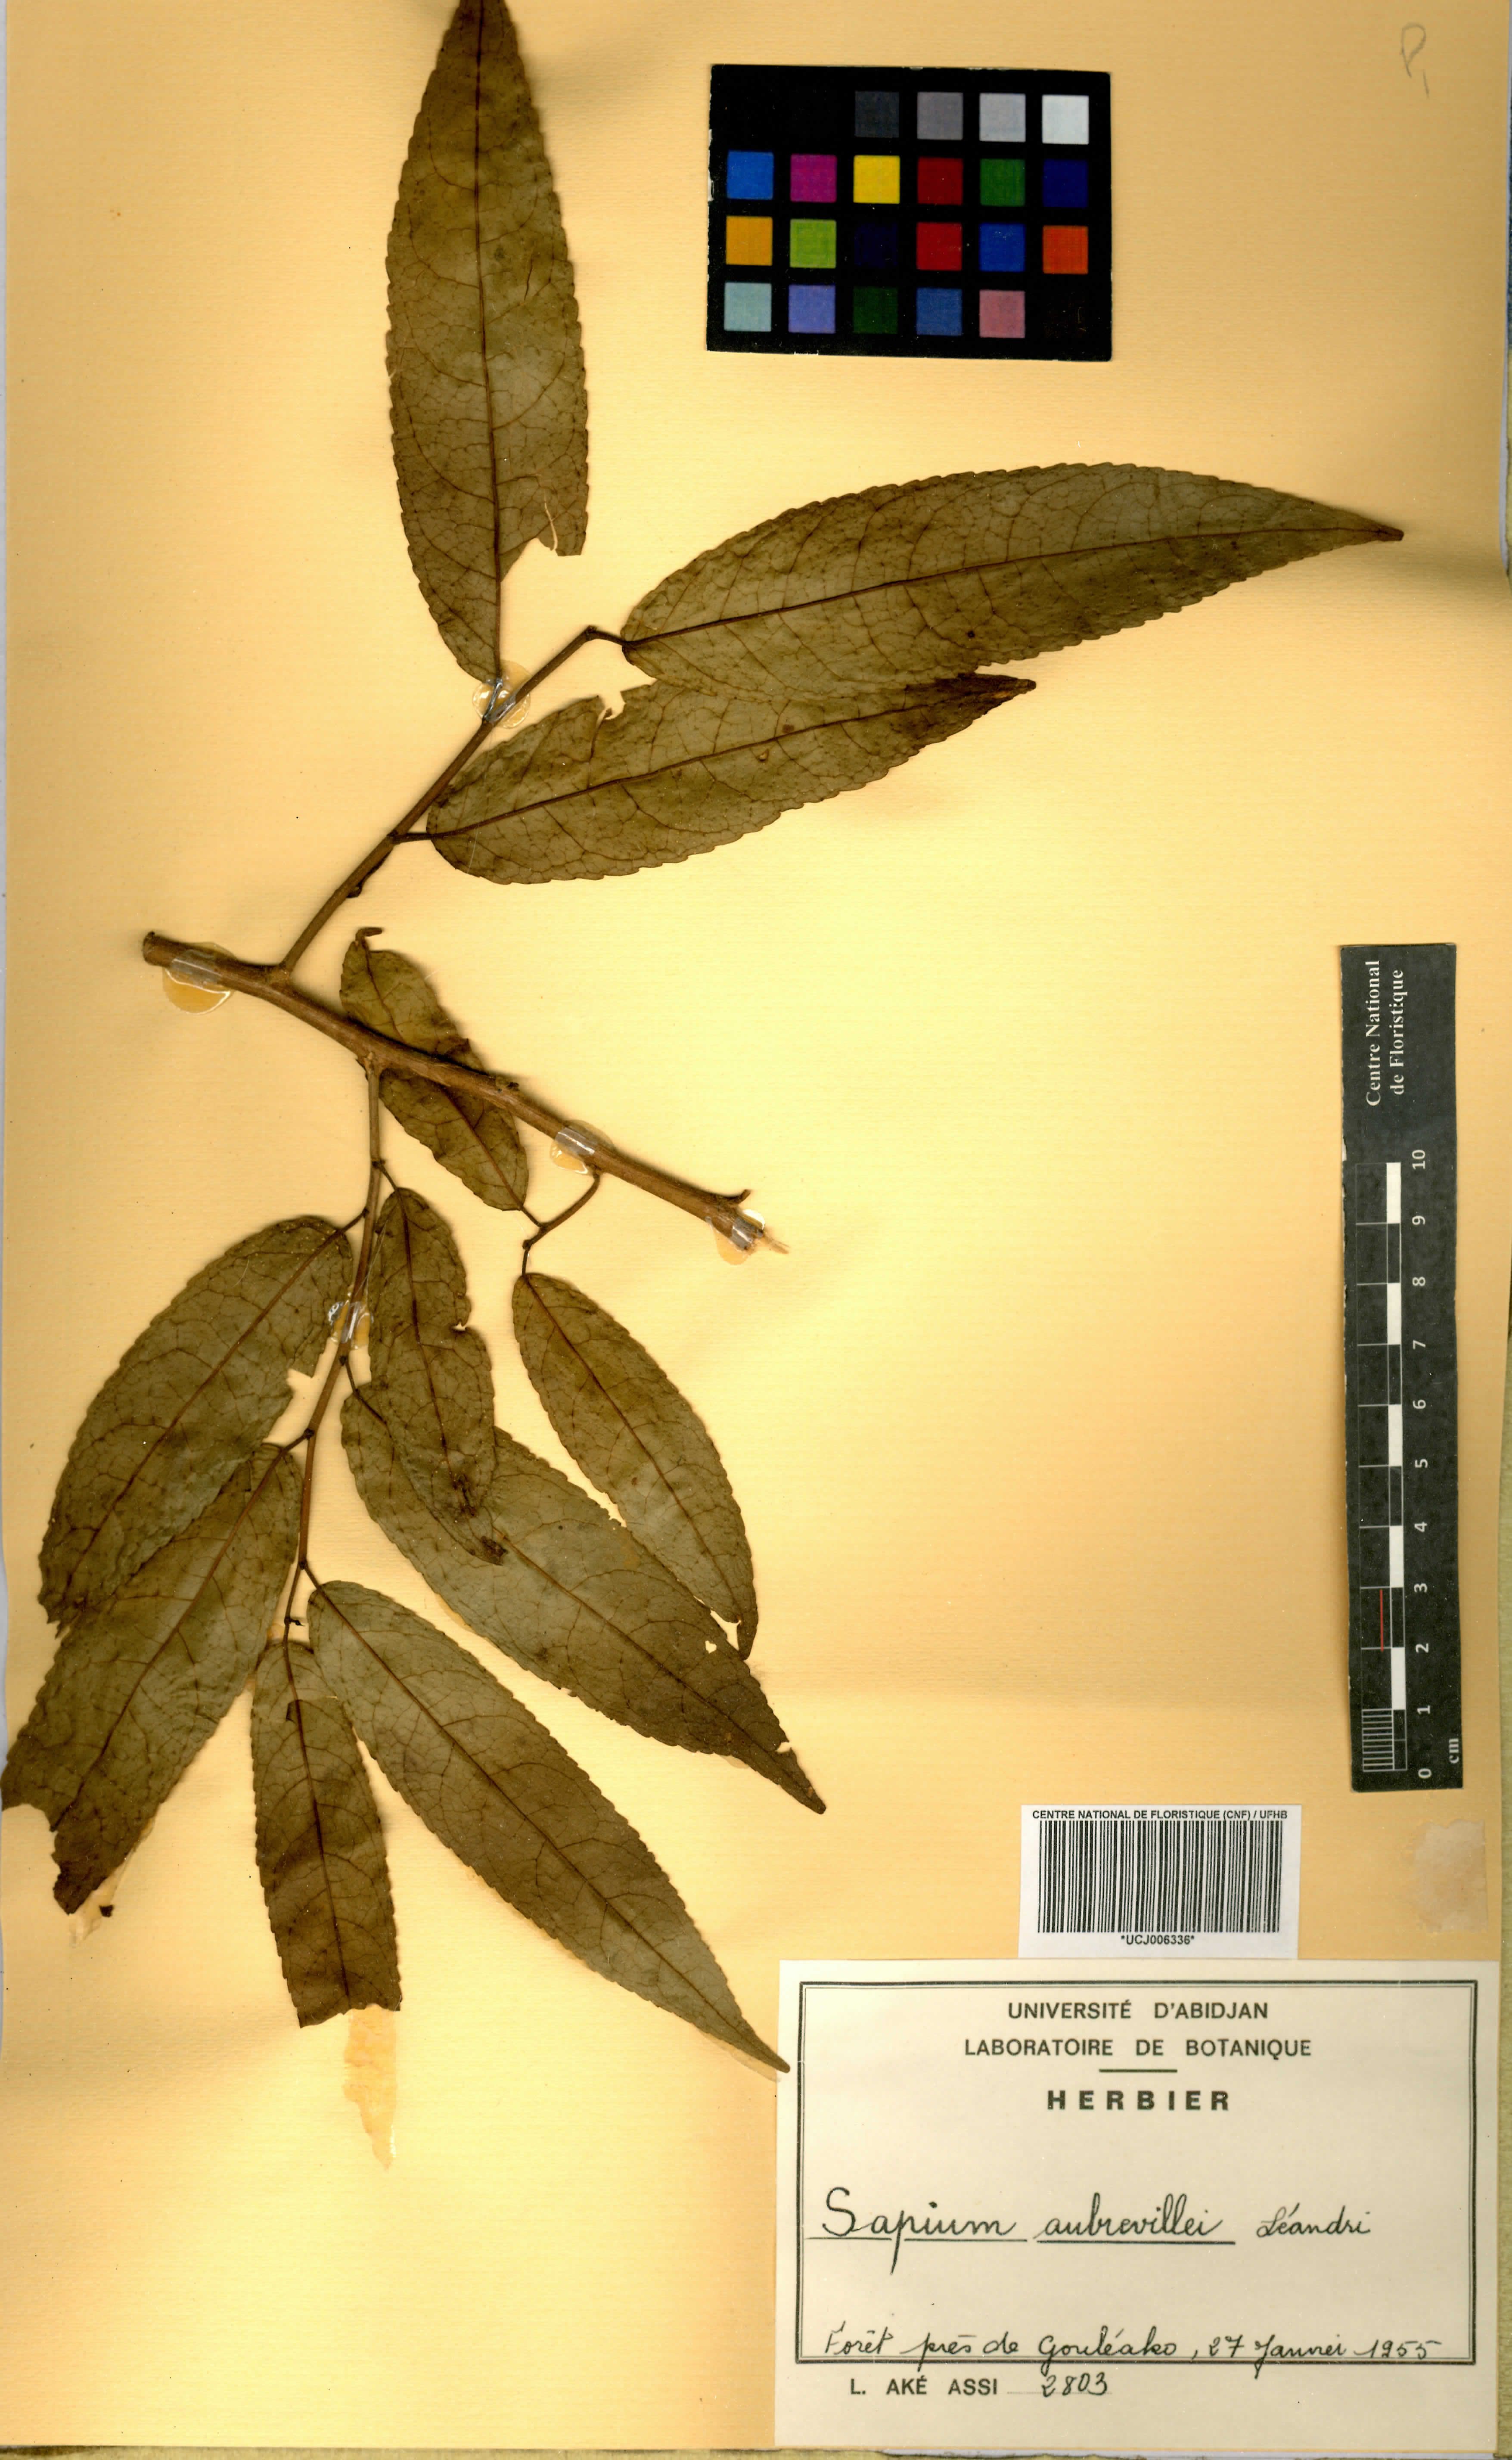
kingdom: Plantae
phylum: Tracheophyta
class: Magnoliopsida
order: Malpighiales
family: Euphorbiaceae
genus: Shirakiopsis
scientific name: Shirakiopsis aubrevillei
